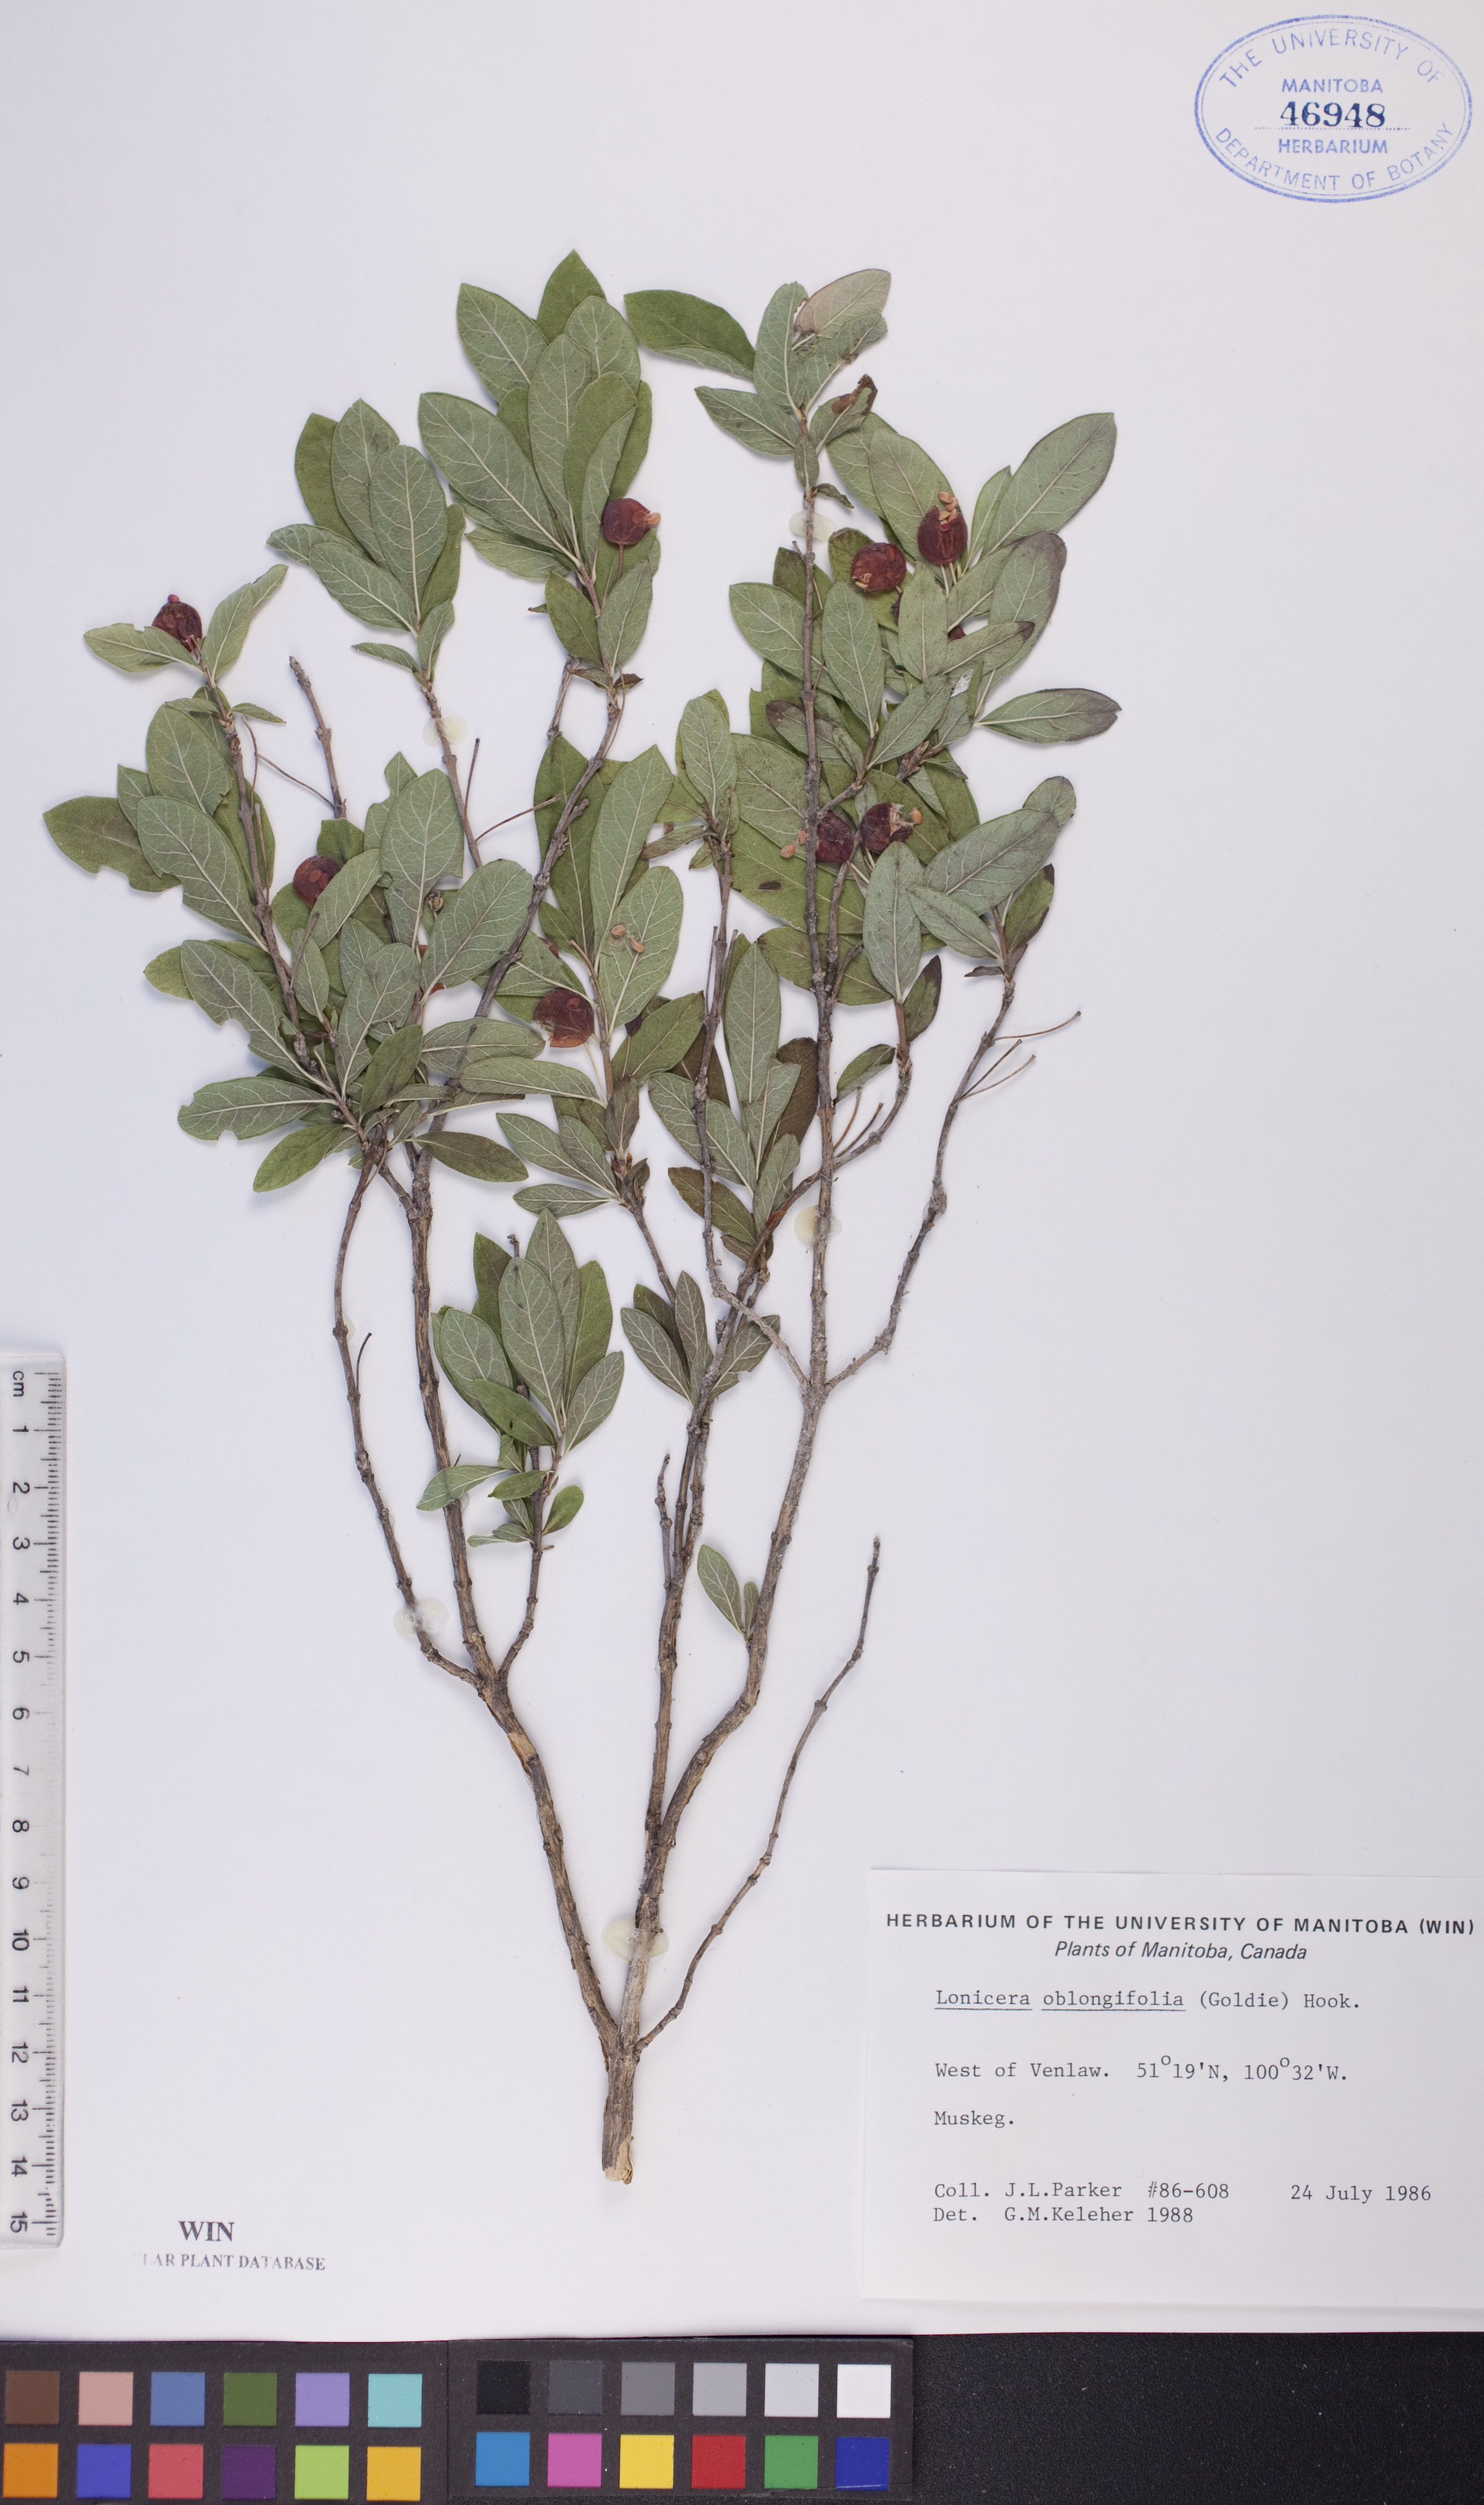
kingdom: Plantae
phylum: Tracheophyta
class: Magnoliopsida
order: Dipsacales
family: Caprifoliaceae
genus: Lonicera
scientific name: Lonicera oblongifolia
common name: Swamp fly honeysuckle
